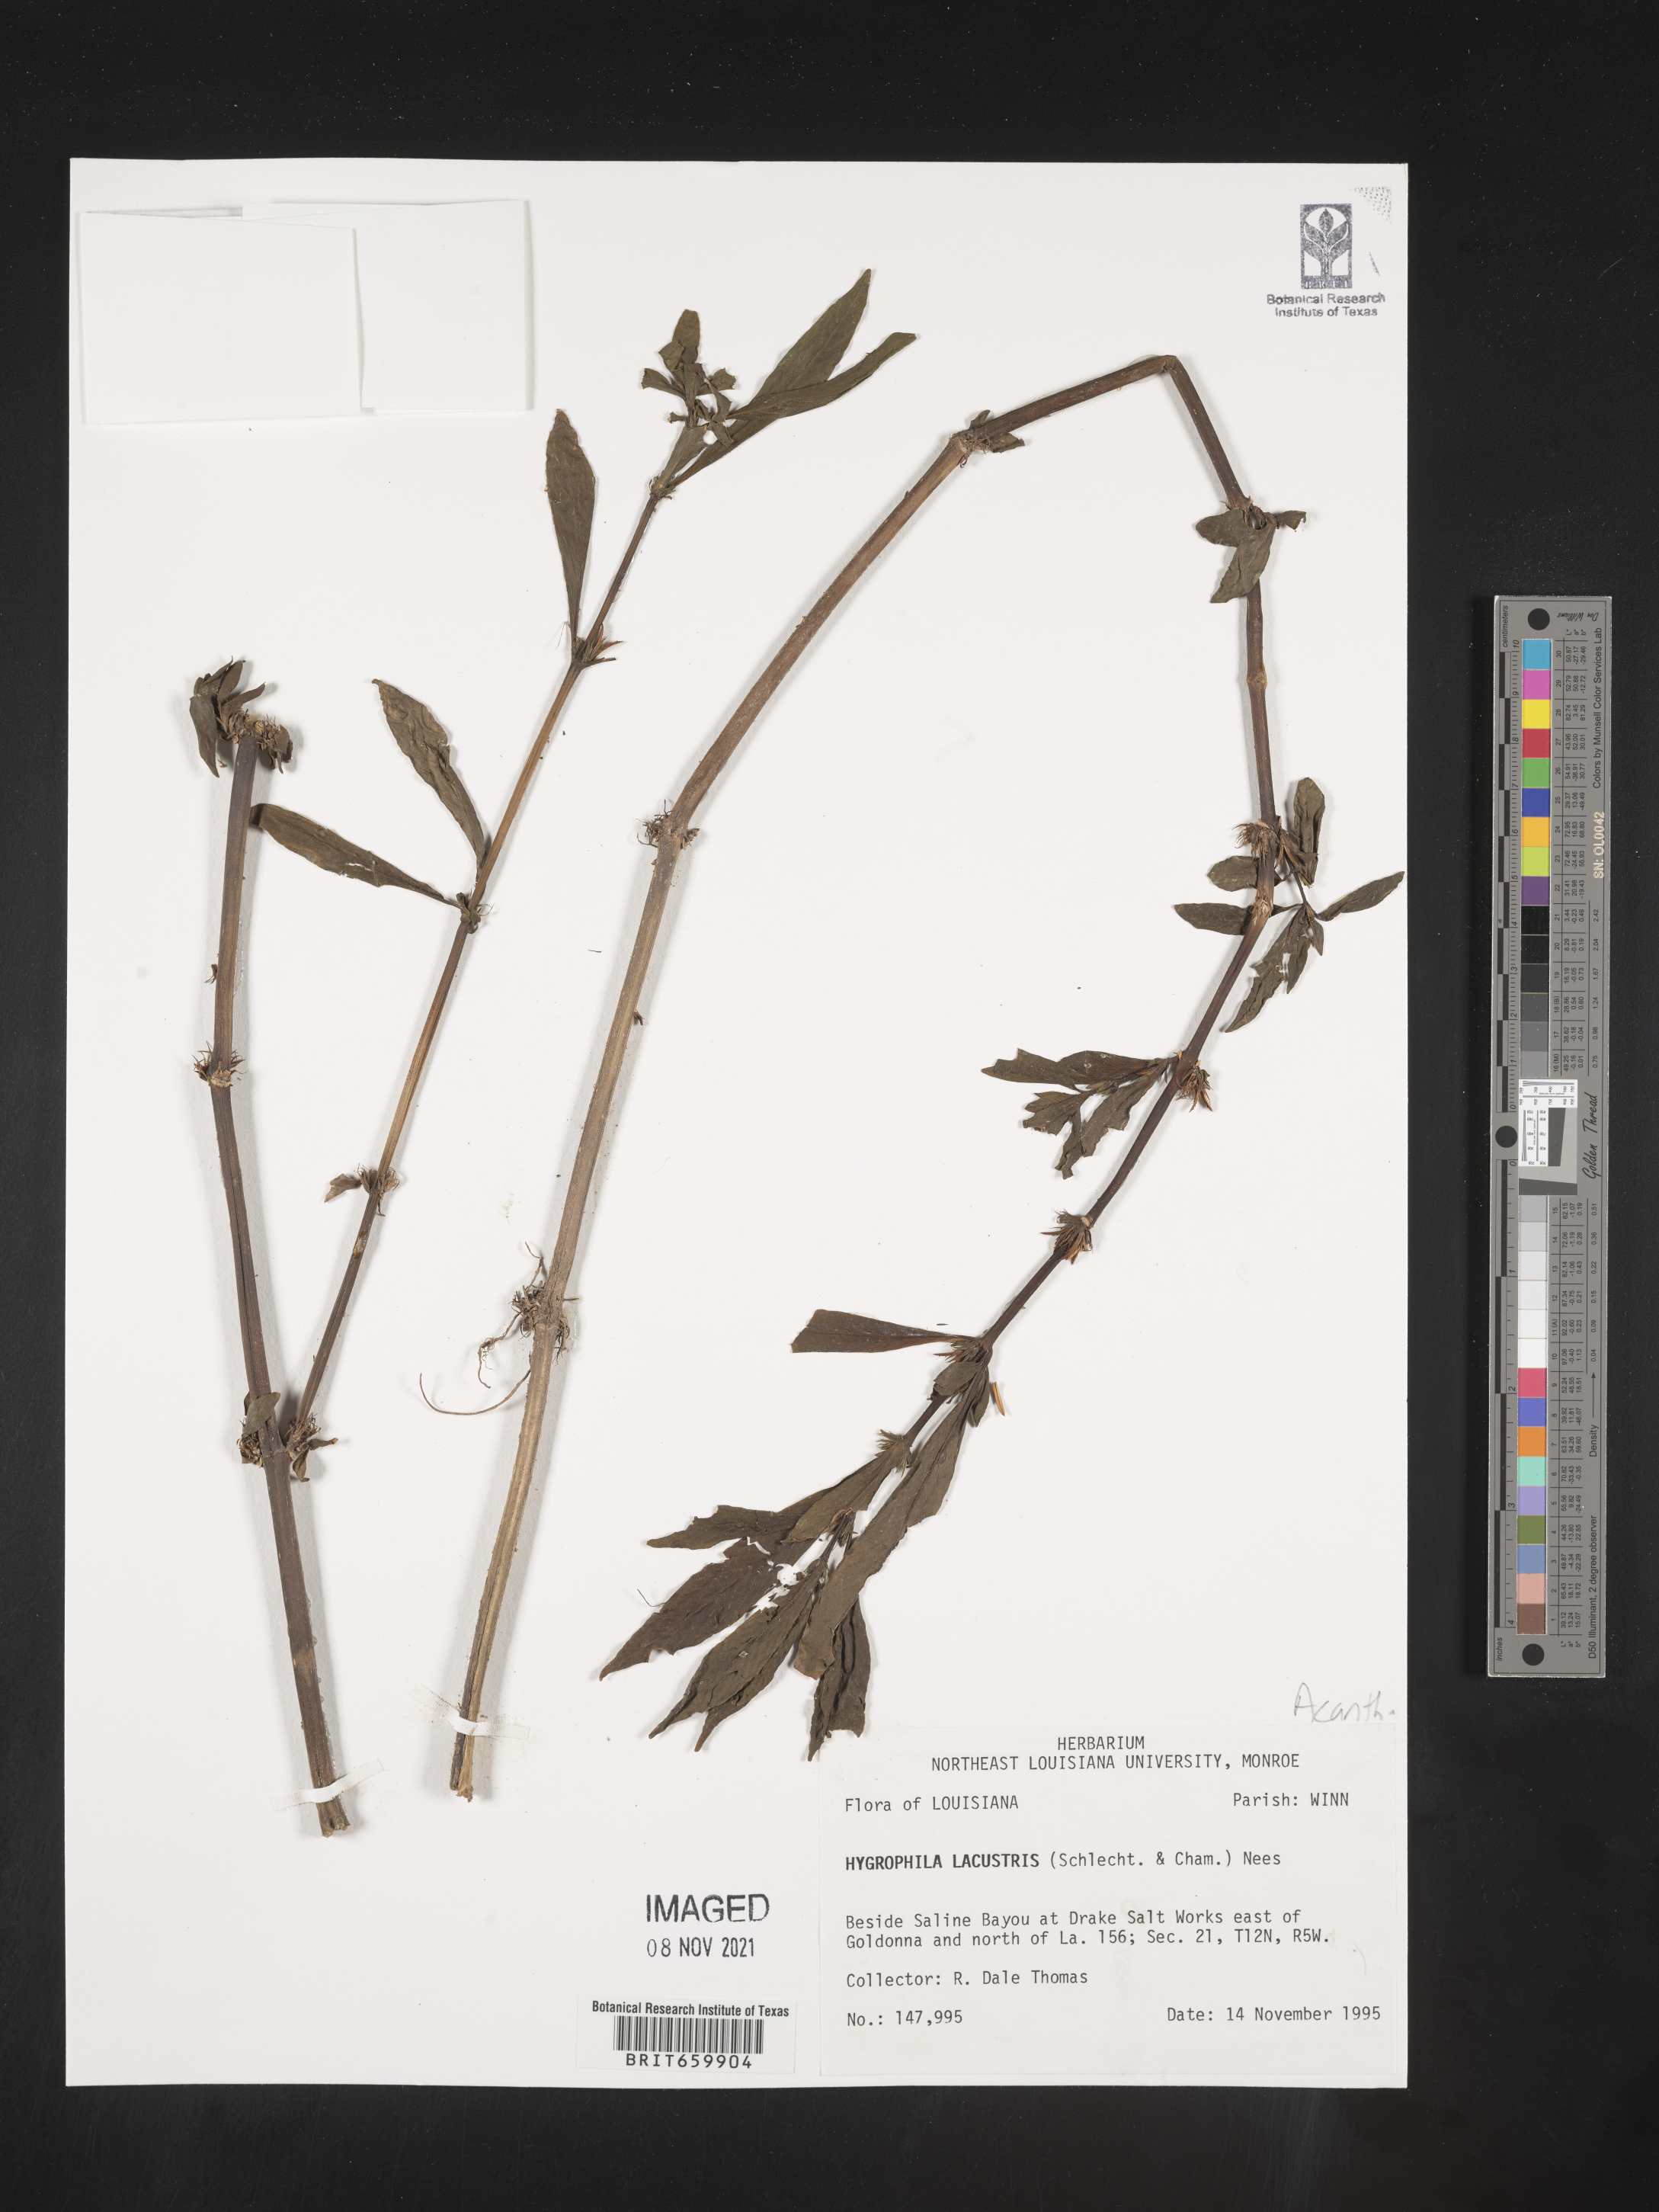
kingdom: Plantae
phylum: Tracheophyta
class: Magnoliopsida
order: Lamiales
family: Acanthaceae
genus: Hygrophila
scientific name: Hygrophila costata
